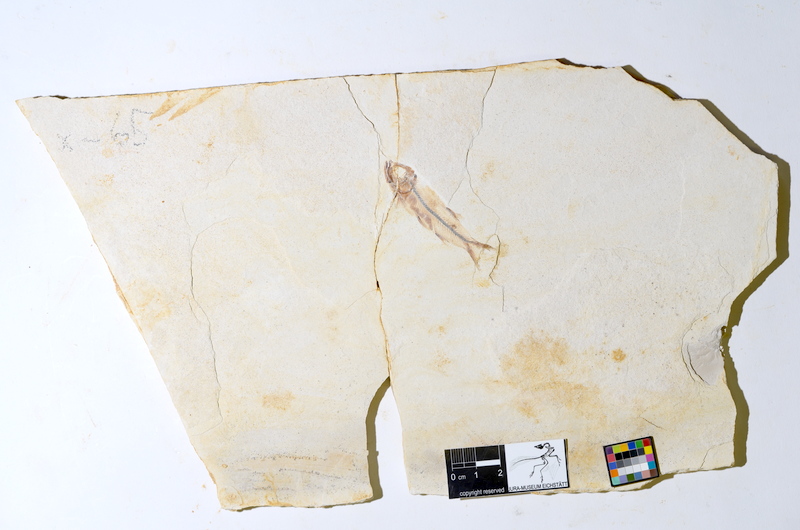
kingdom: Animalia
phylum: Chordata
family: Ascalaboidae
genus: Ebertichthys
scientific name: Ebertichthys ettlingensis
